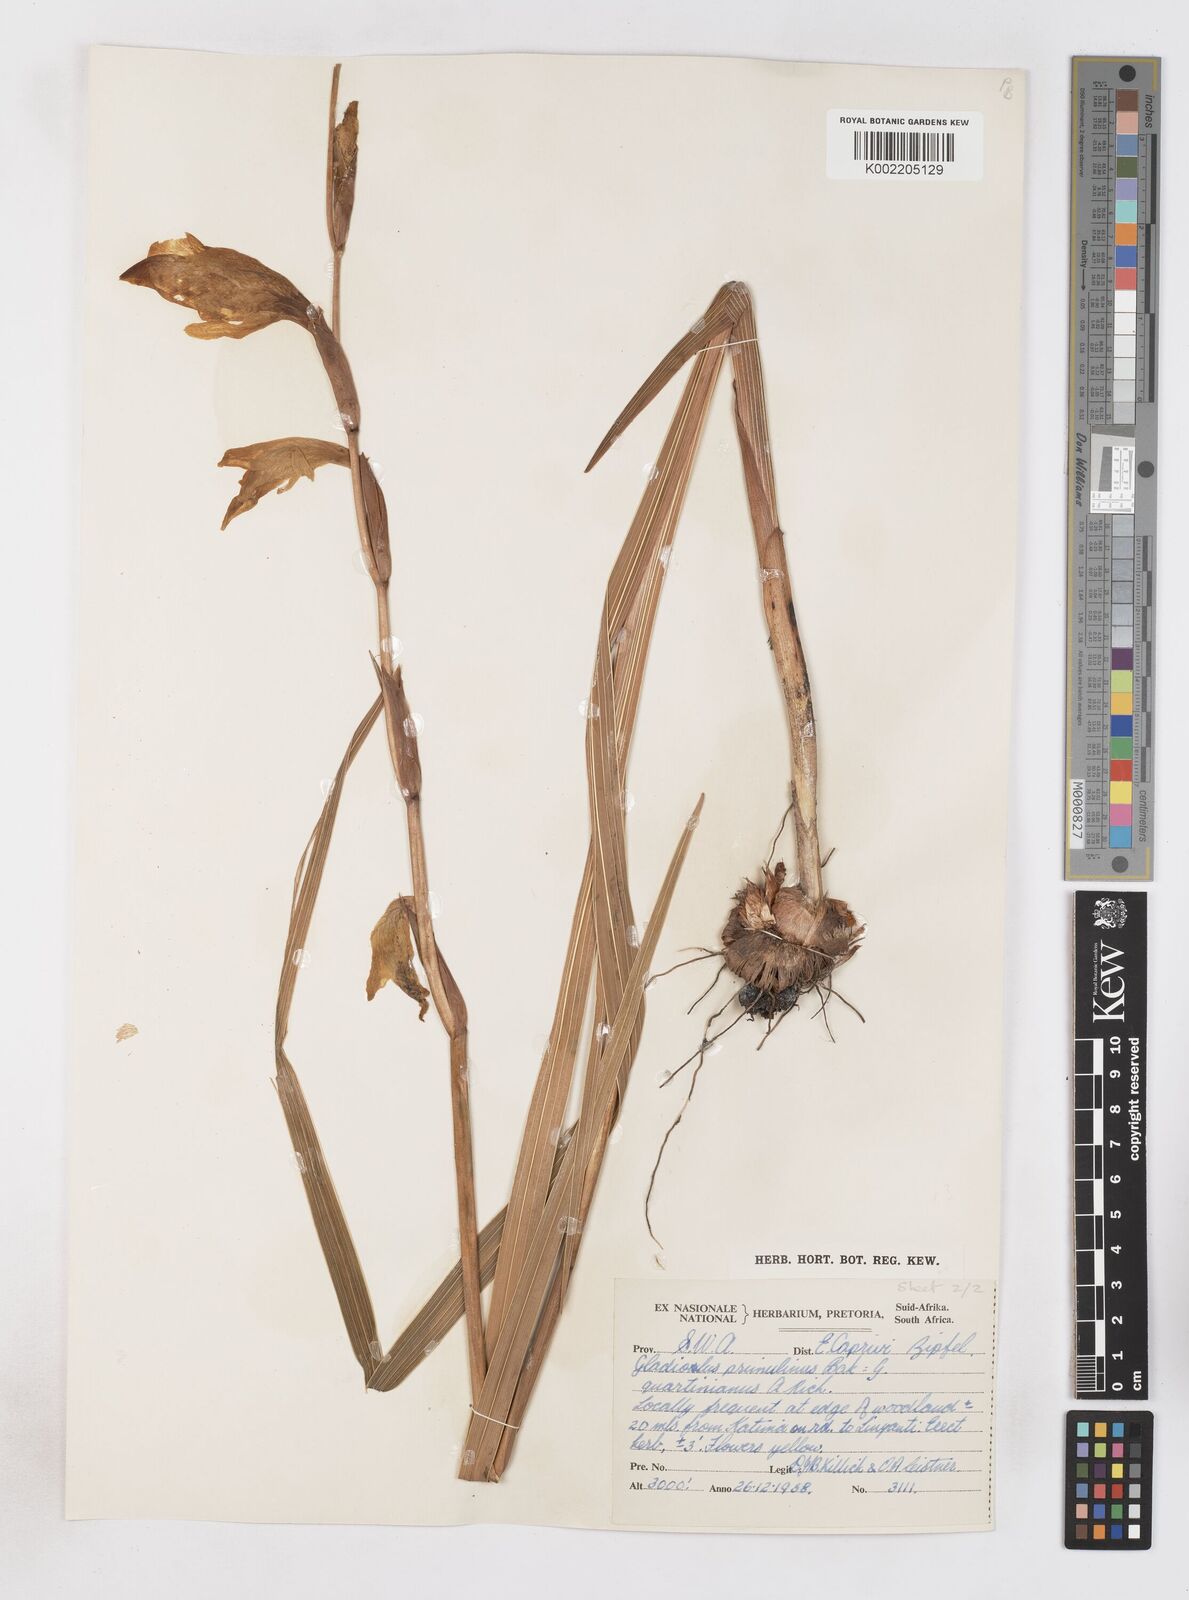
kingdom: Plantae
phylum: Tracheophyta
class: Liliopsida
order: Asparagales
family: Iridaceae
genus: Gladiolus
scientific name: Gladiolus dalenii
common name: Cornflag
